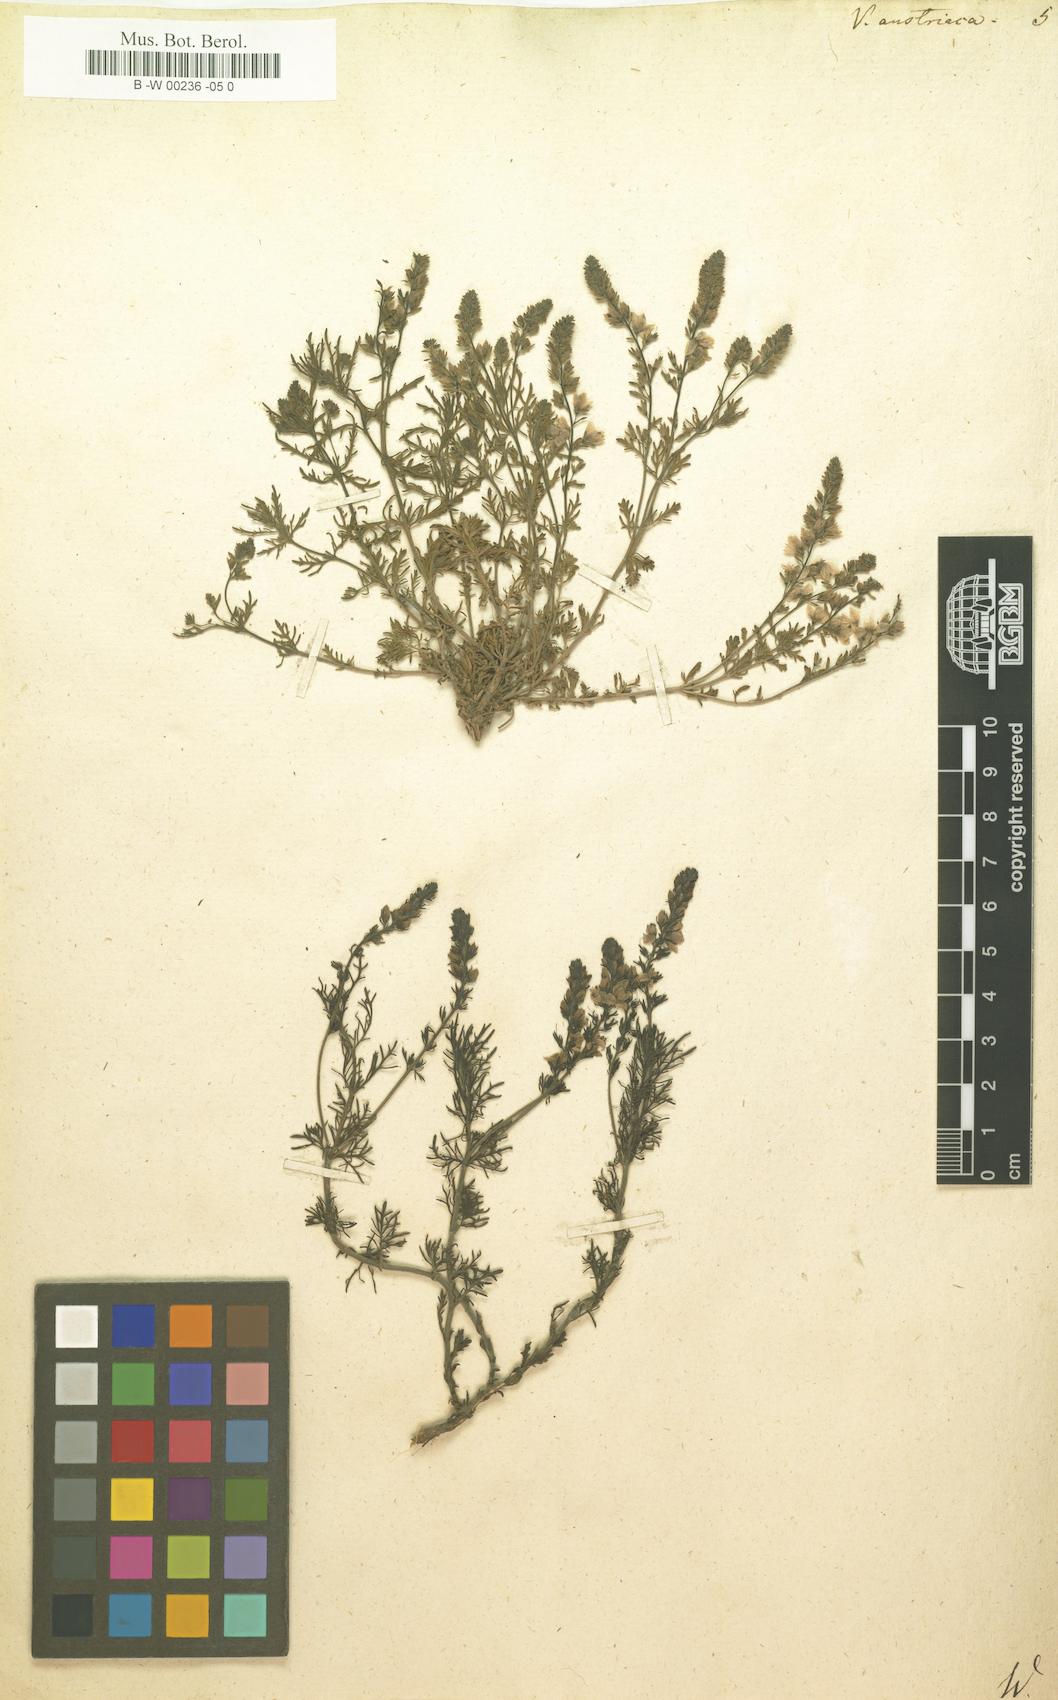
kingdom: Plantae
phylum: Tracheophyta
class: Magnoliopsida
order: Lamiales
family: Plantaginaceae
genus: Veronica
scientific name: Veronica austriaca
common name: Large speedwell
